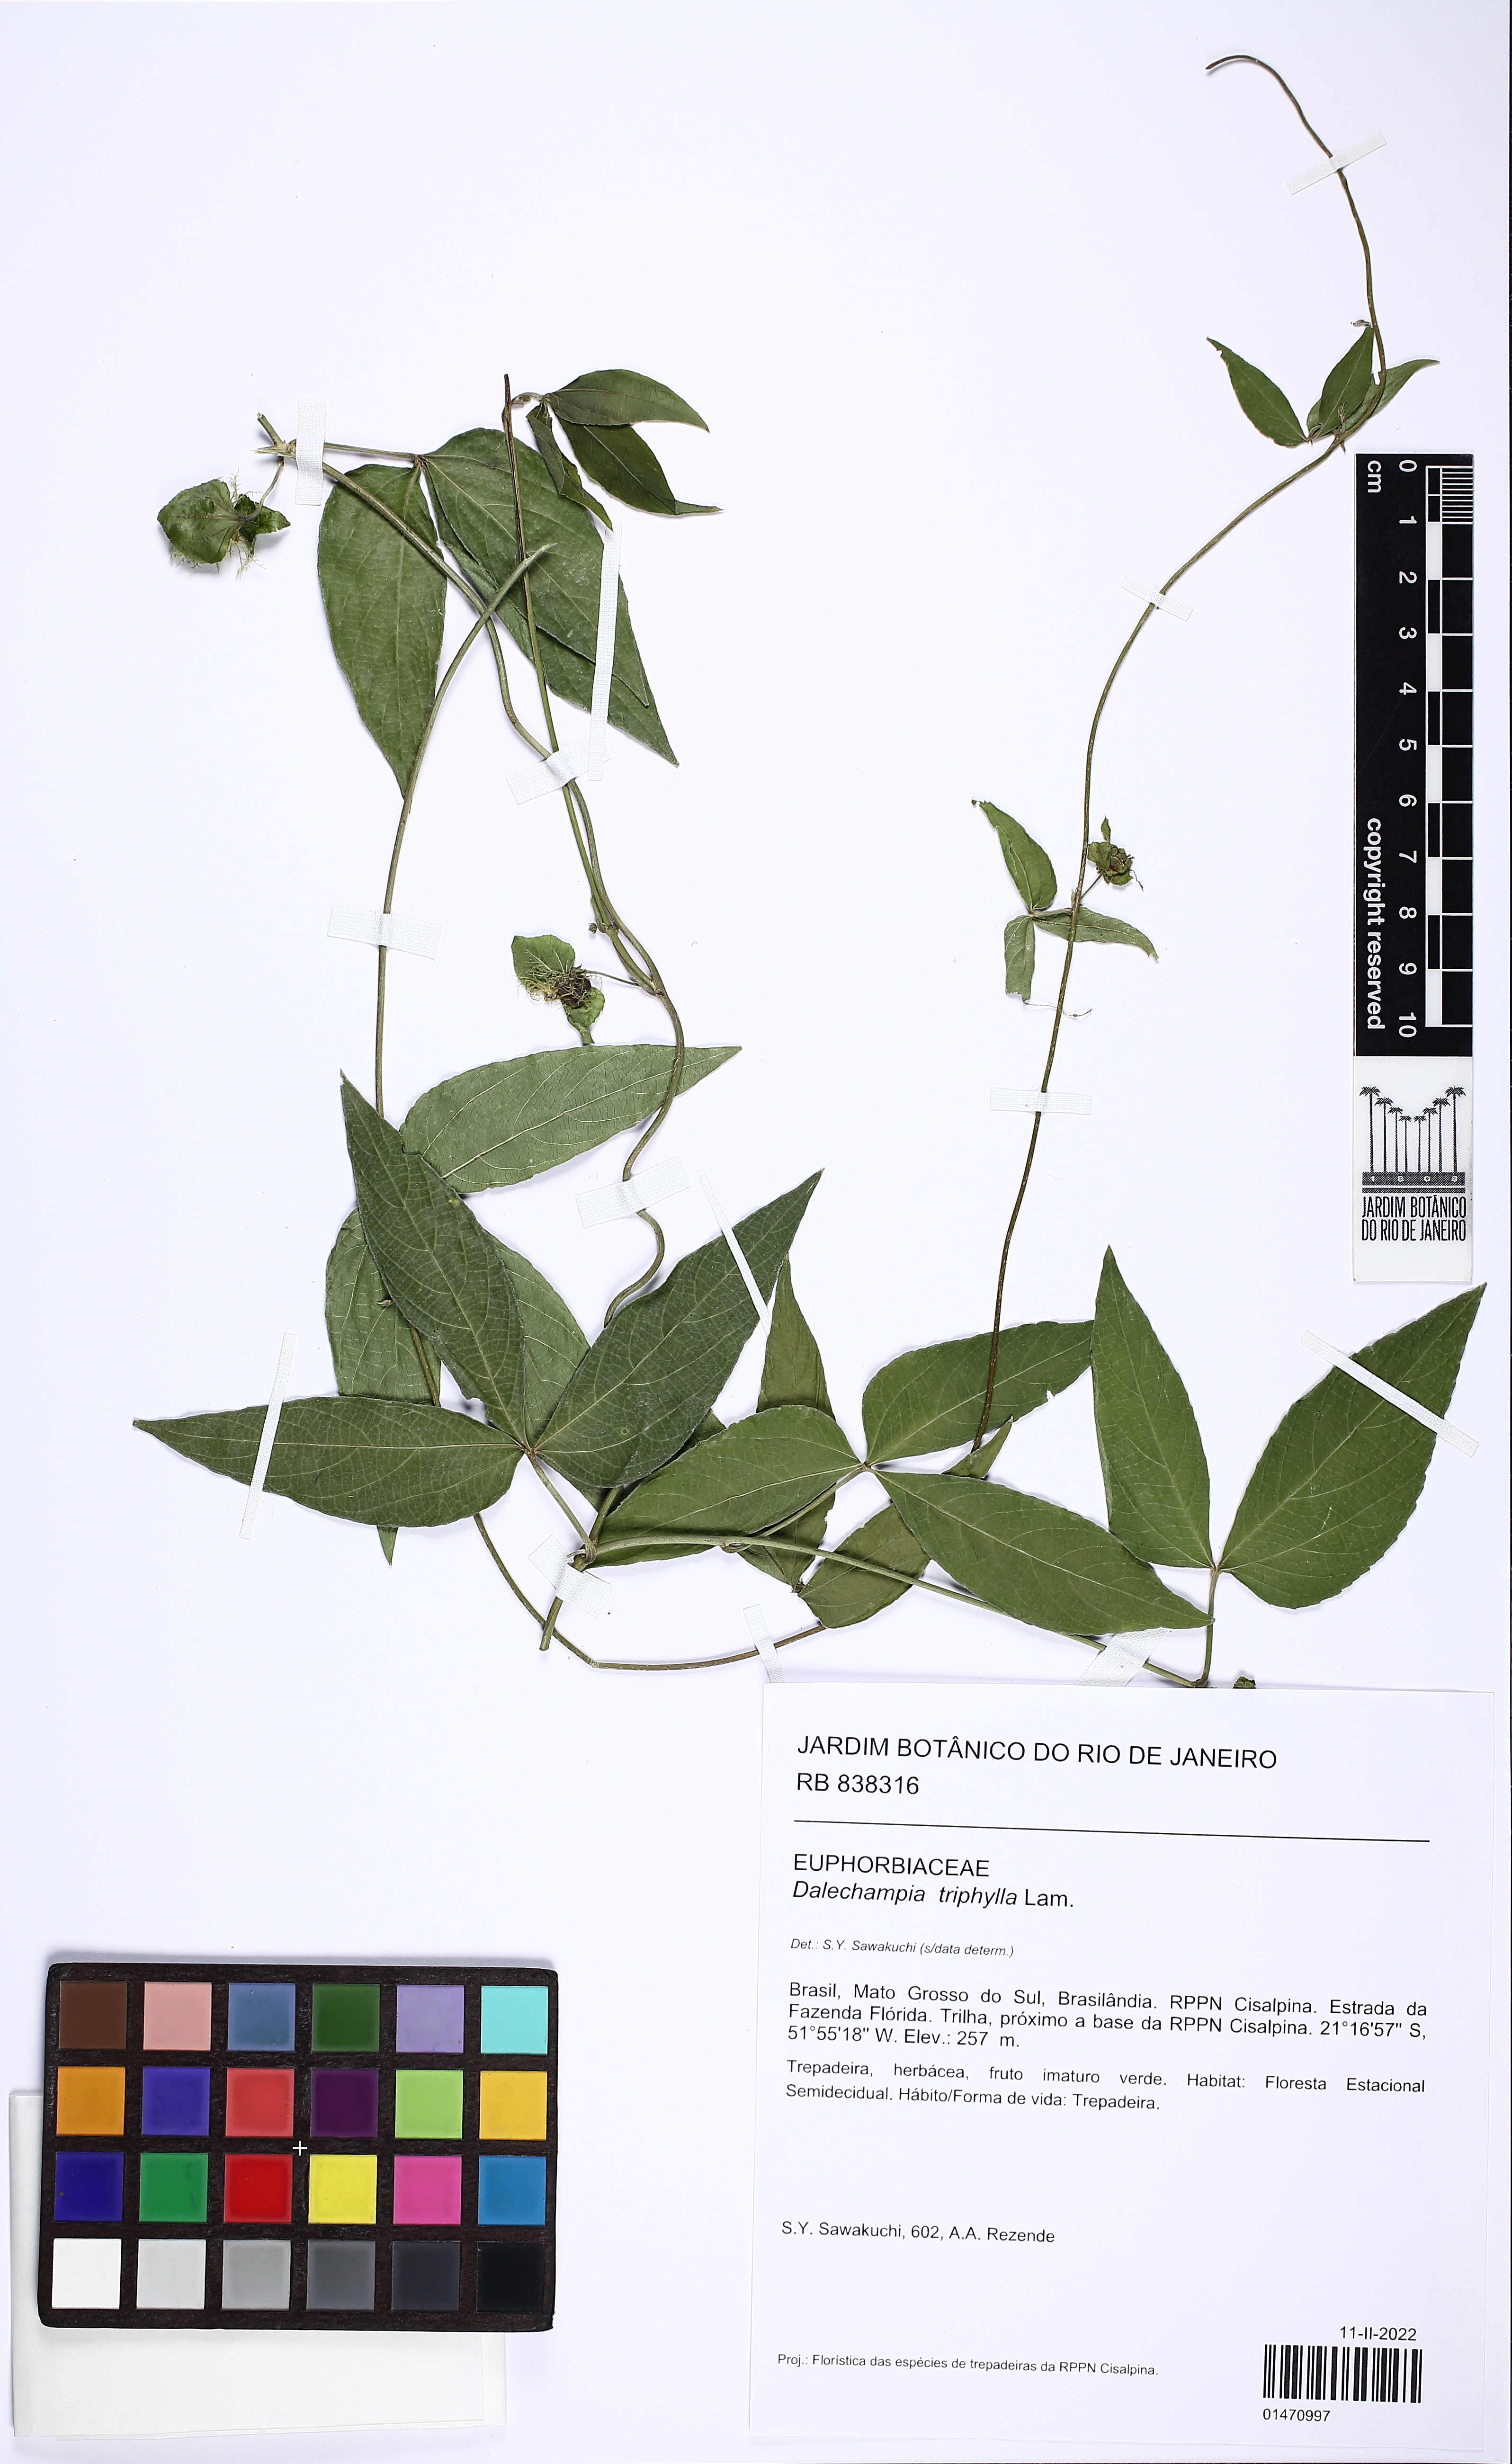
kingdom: Plantae
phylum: Tracheophyta
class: Magnoliopsida
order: Malpighiales
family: Euphorbiaceae
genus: Dalechampia
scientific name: Dalechampia triphylla
